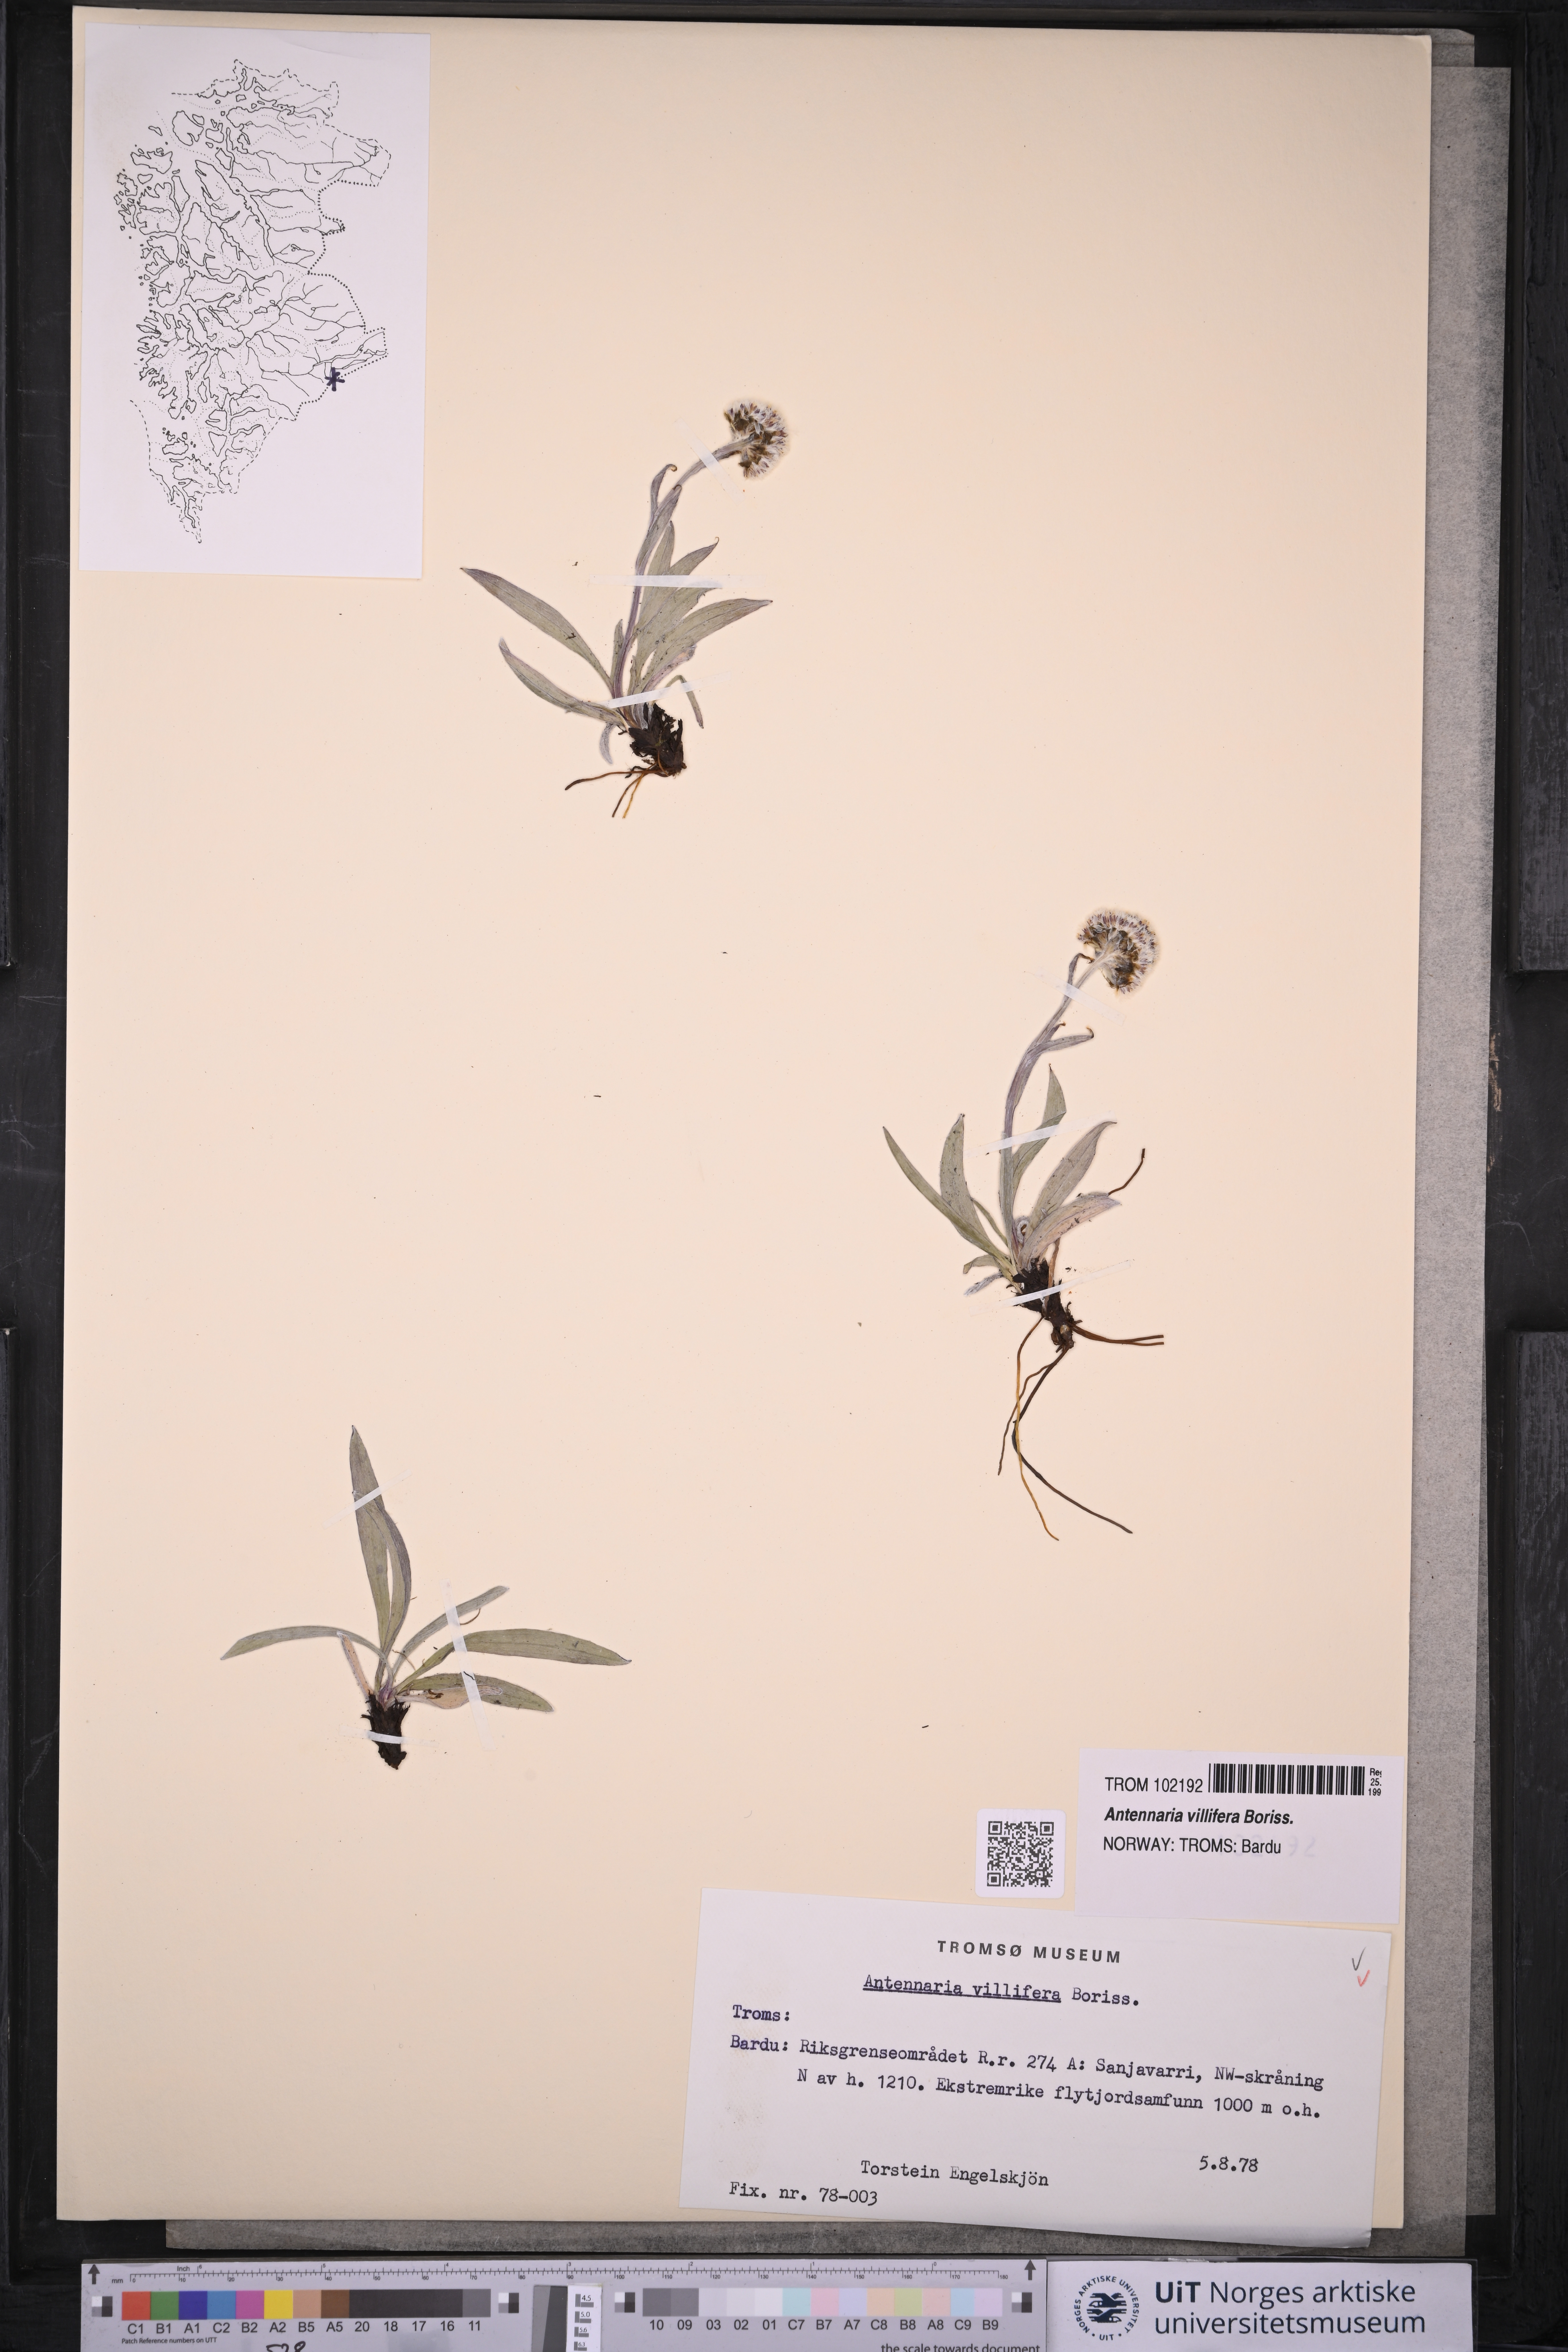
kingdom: Plantae
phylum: Tracheophyta
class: Magnoliopsida
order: Asterales
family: Asteraceae
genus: Antennaria
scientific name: Antennaria lanata
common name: Woolly pussytoes
